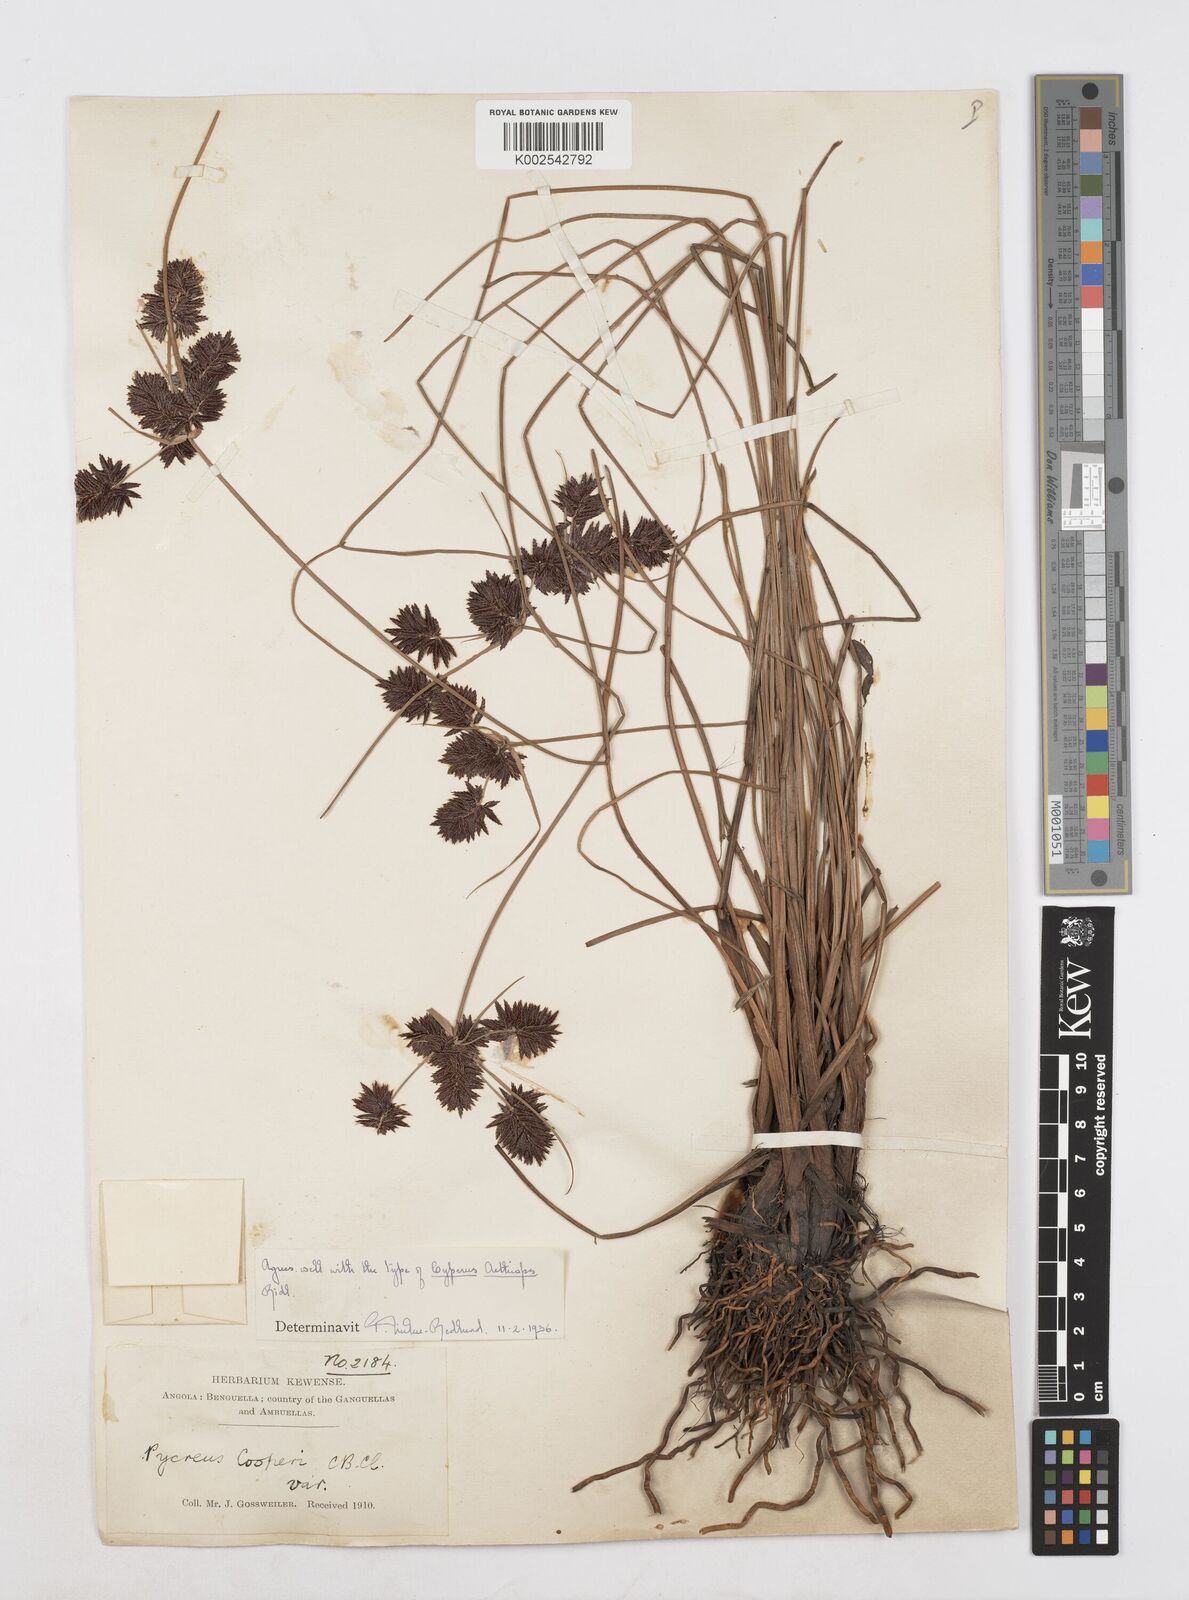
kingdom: Plantae
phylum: Tracheophyta
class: Liliopsida
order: Poales
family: Cyperaceae
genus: Cyperus
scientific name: Cyperus aethiops
